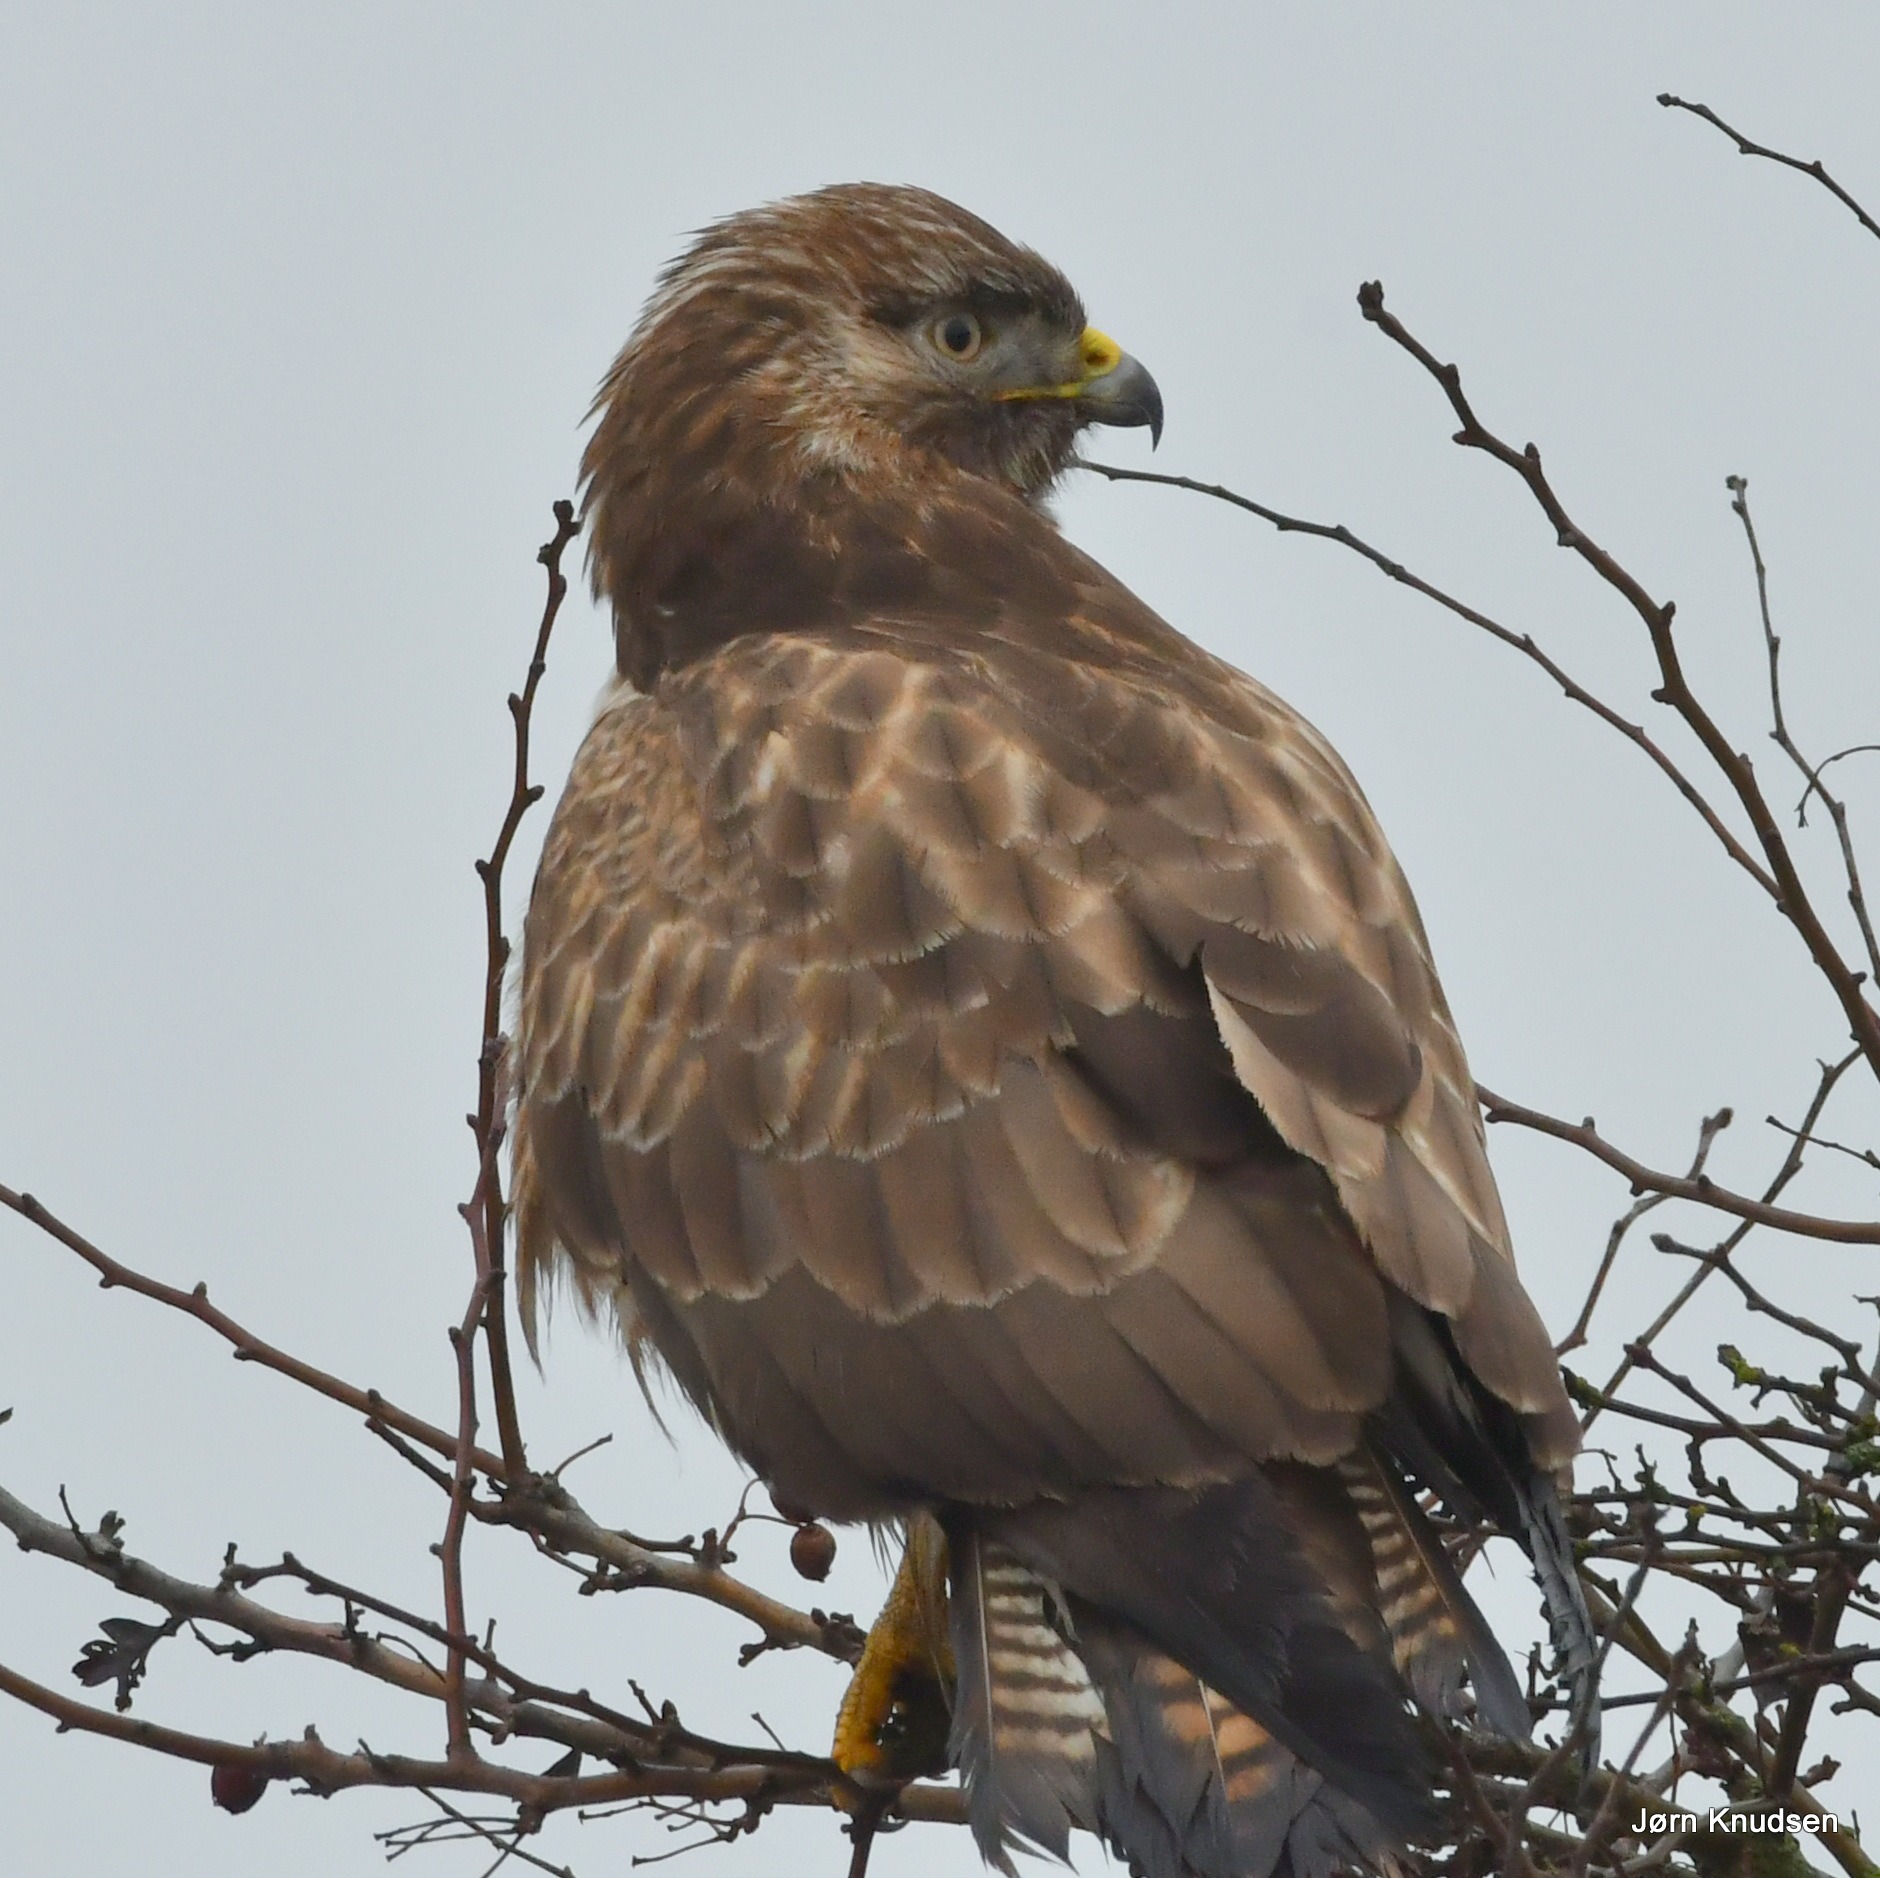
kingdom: Animalia
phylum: Chordata
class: Aves
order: Accipitriformes
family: Accipitridae
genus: Buteo
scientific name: Buteo buteo
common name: Musvåge
